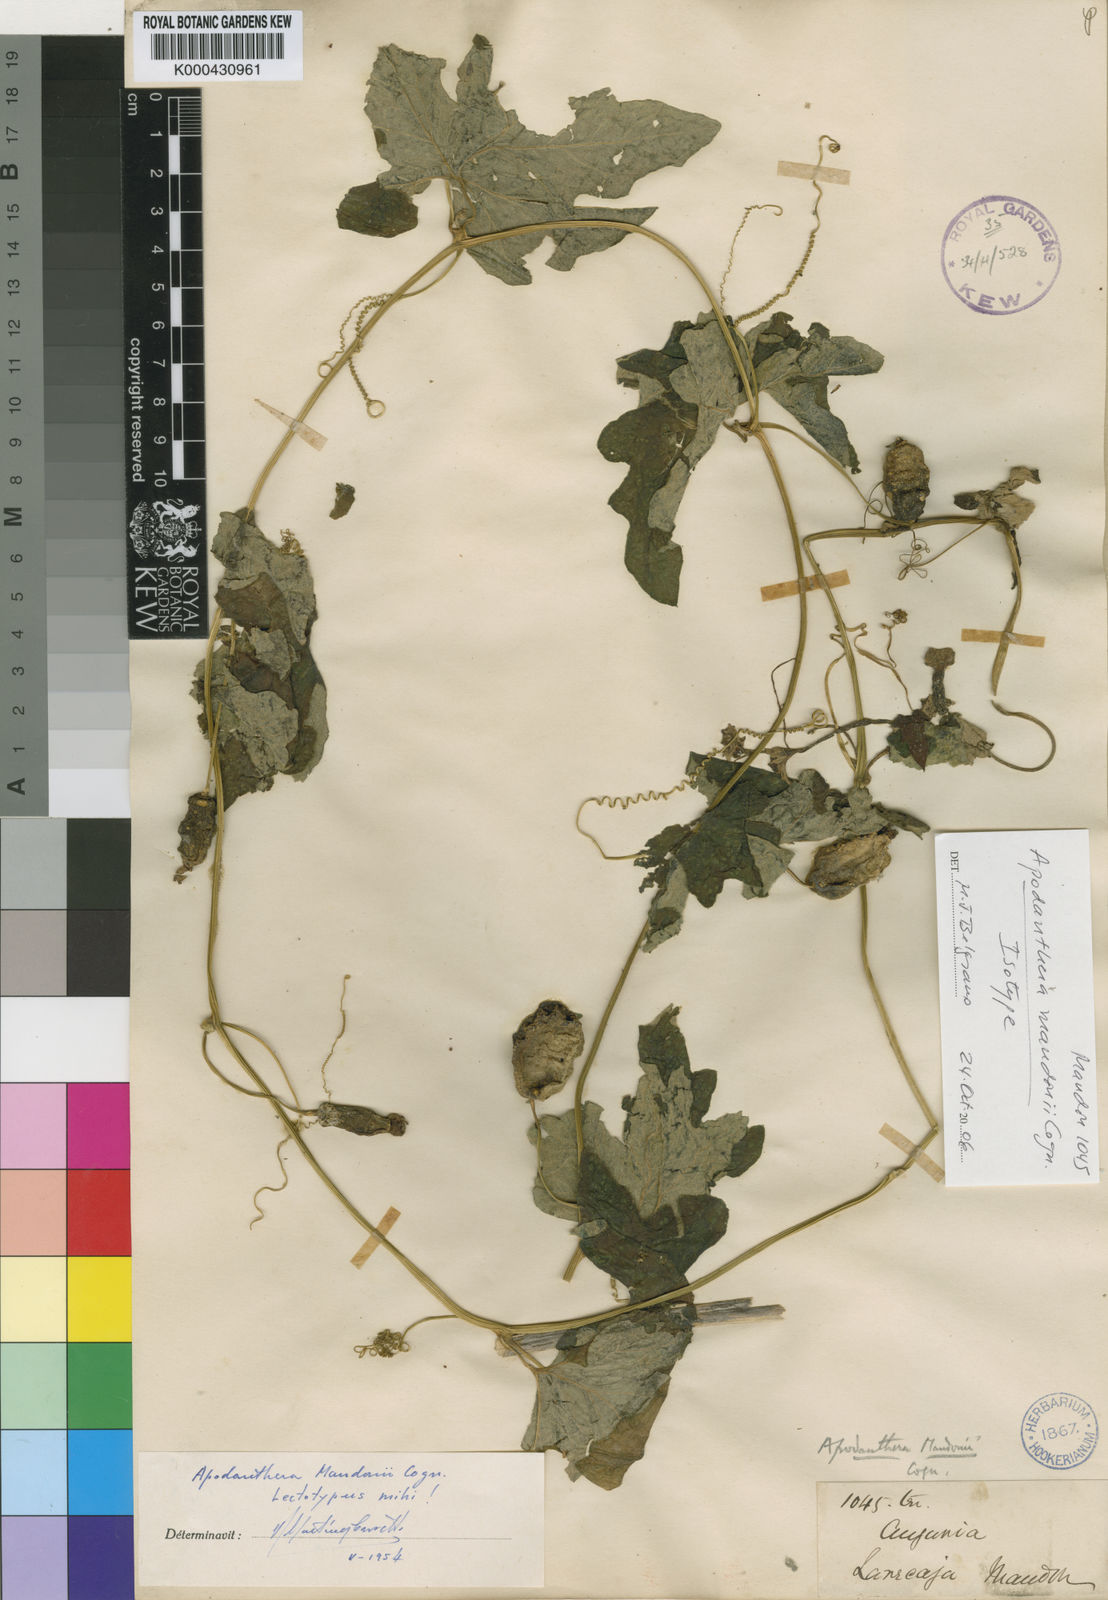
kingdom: Plantae
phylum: Tracheophyta
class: Magnoliopsida
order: Cucurbitales
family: Cucurbitaceae
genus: Apodanthera
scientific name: Apodanthera mandonii
